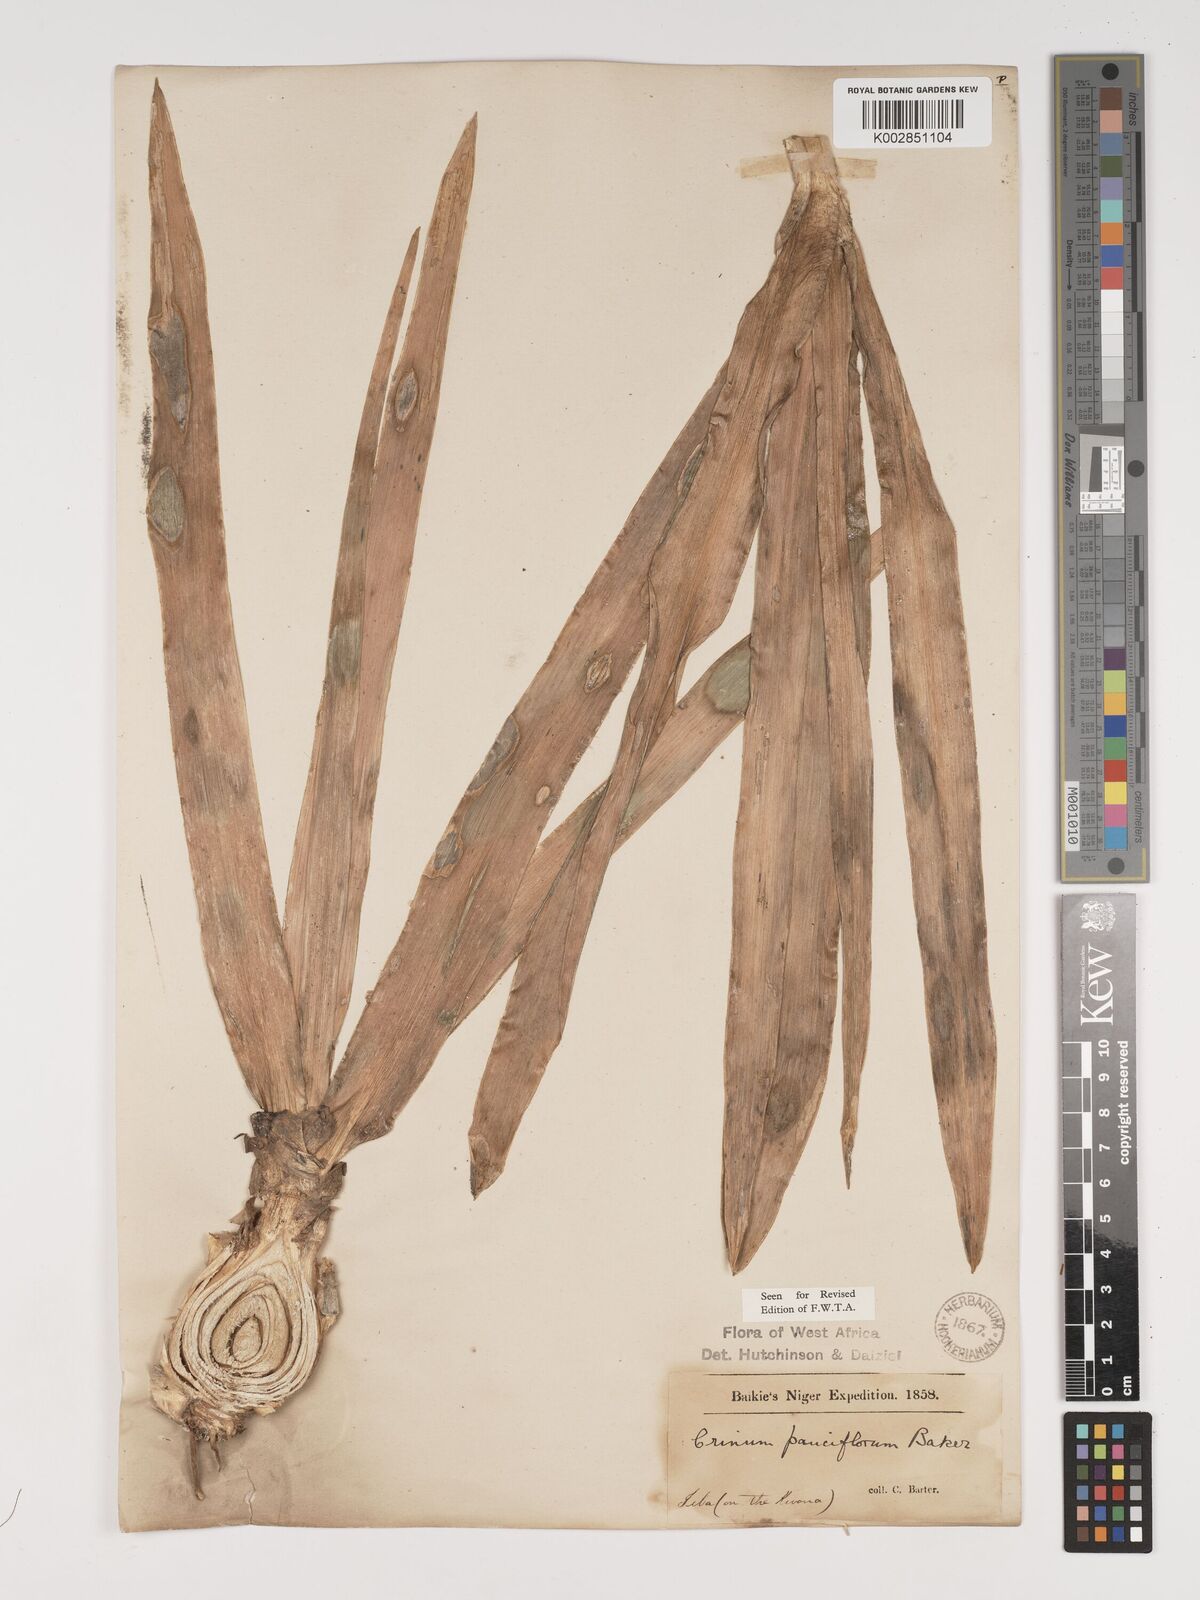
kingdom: Plantae
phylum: Tracheophyta
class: Liliopsida
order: Asparagales
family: Amaryllidaceae
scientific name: Amaryllidaceae
